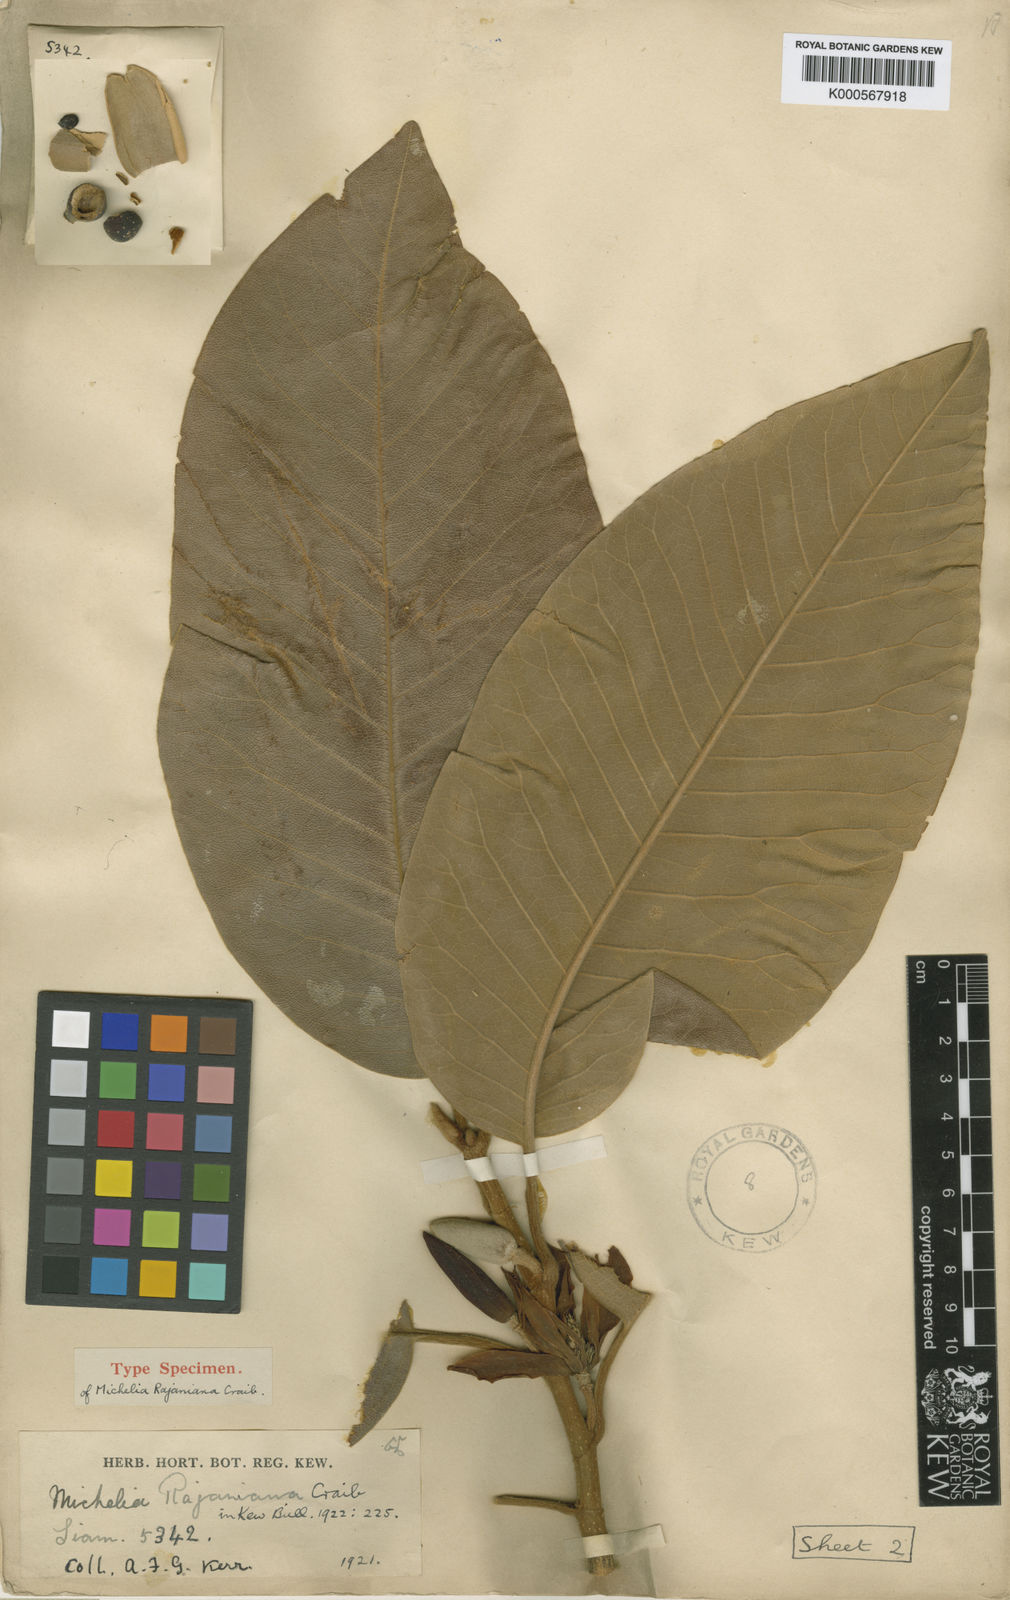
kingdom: Plantae
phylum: Tracheophyta
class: Magnoliopsida
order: Magnoliales
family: Magnoliaceae
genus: Magnolia
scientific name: Magnolia rajaniana
